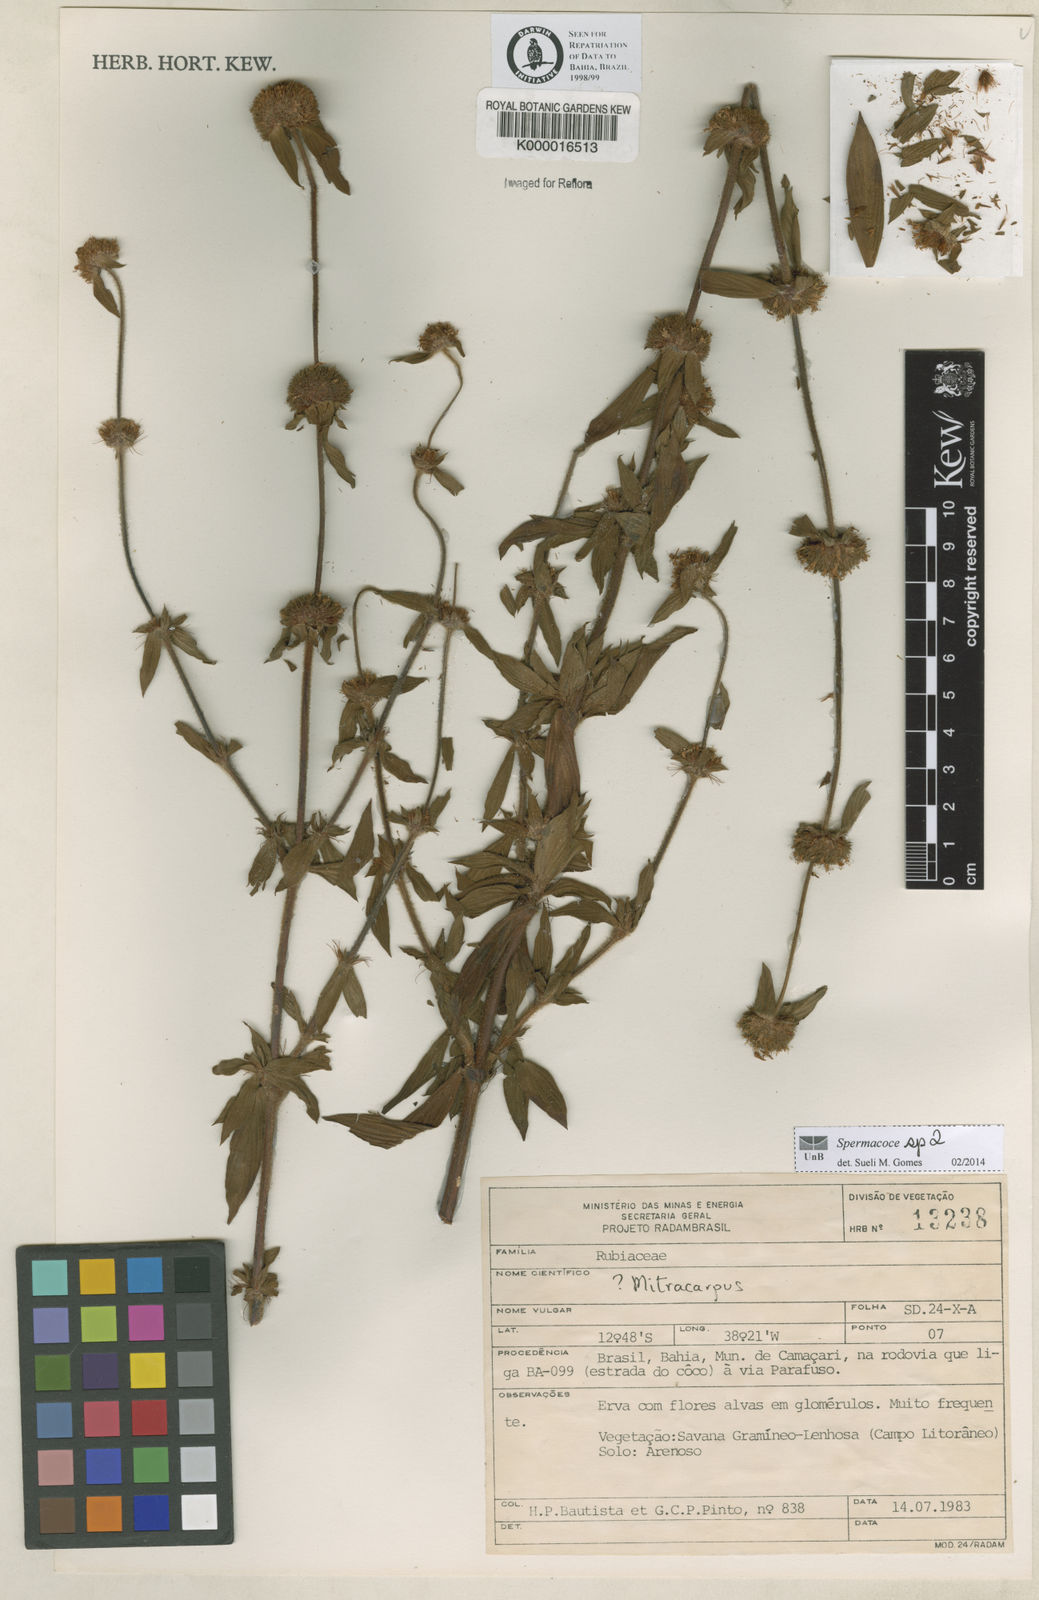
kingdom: Plantae
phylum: Tracheophyta
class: Magnoliopsida
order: Gentianales
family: Rubiaceae
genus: Mitracarpus
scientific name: Mitracarpus megapotamicus
